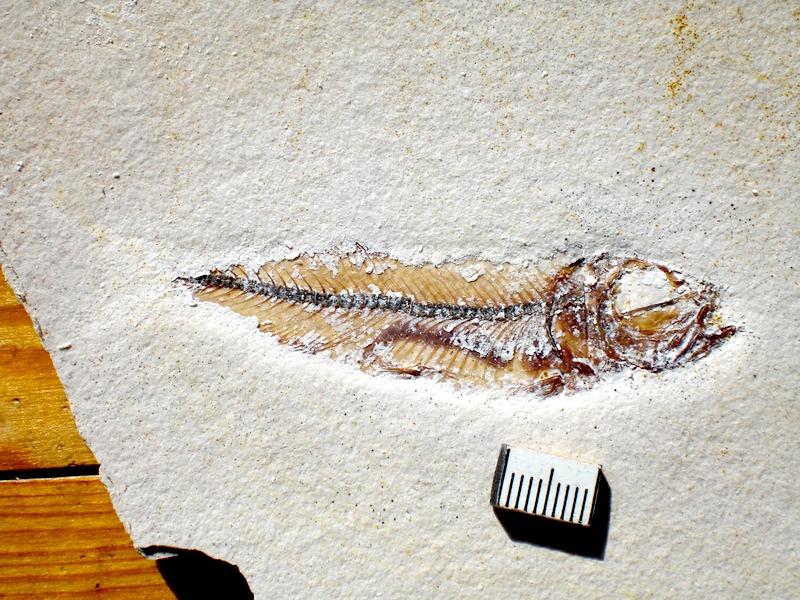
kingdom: Animalia
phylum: Chordata
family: Ascalaboidae
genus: Ebertichthys
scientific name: Ebertichthys ettlingensis
